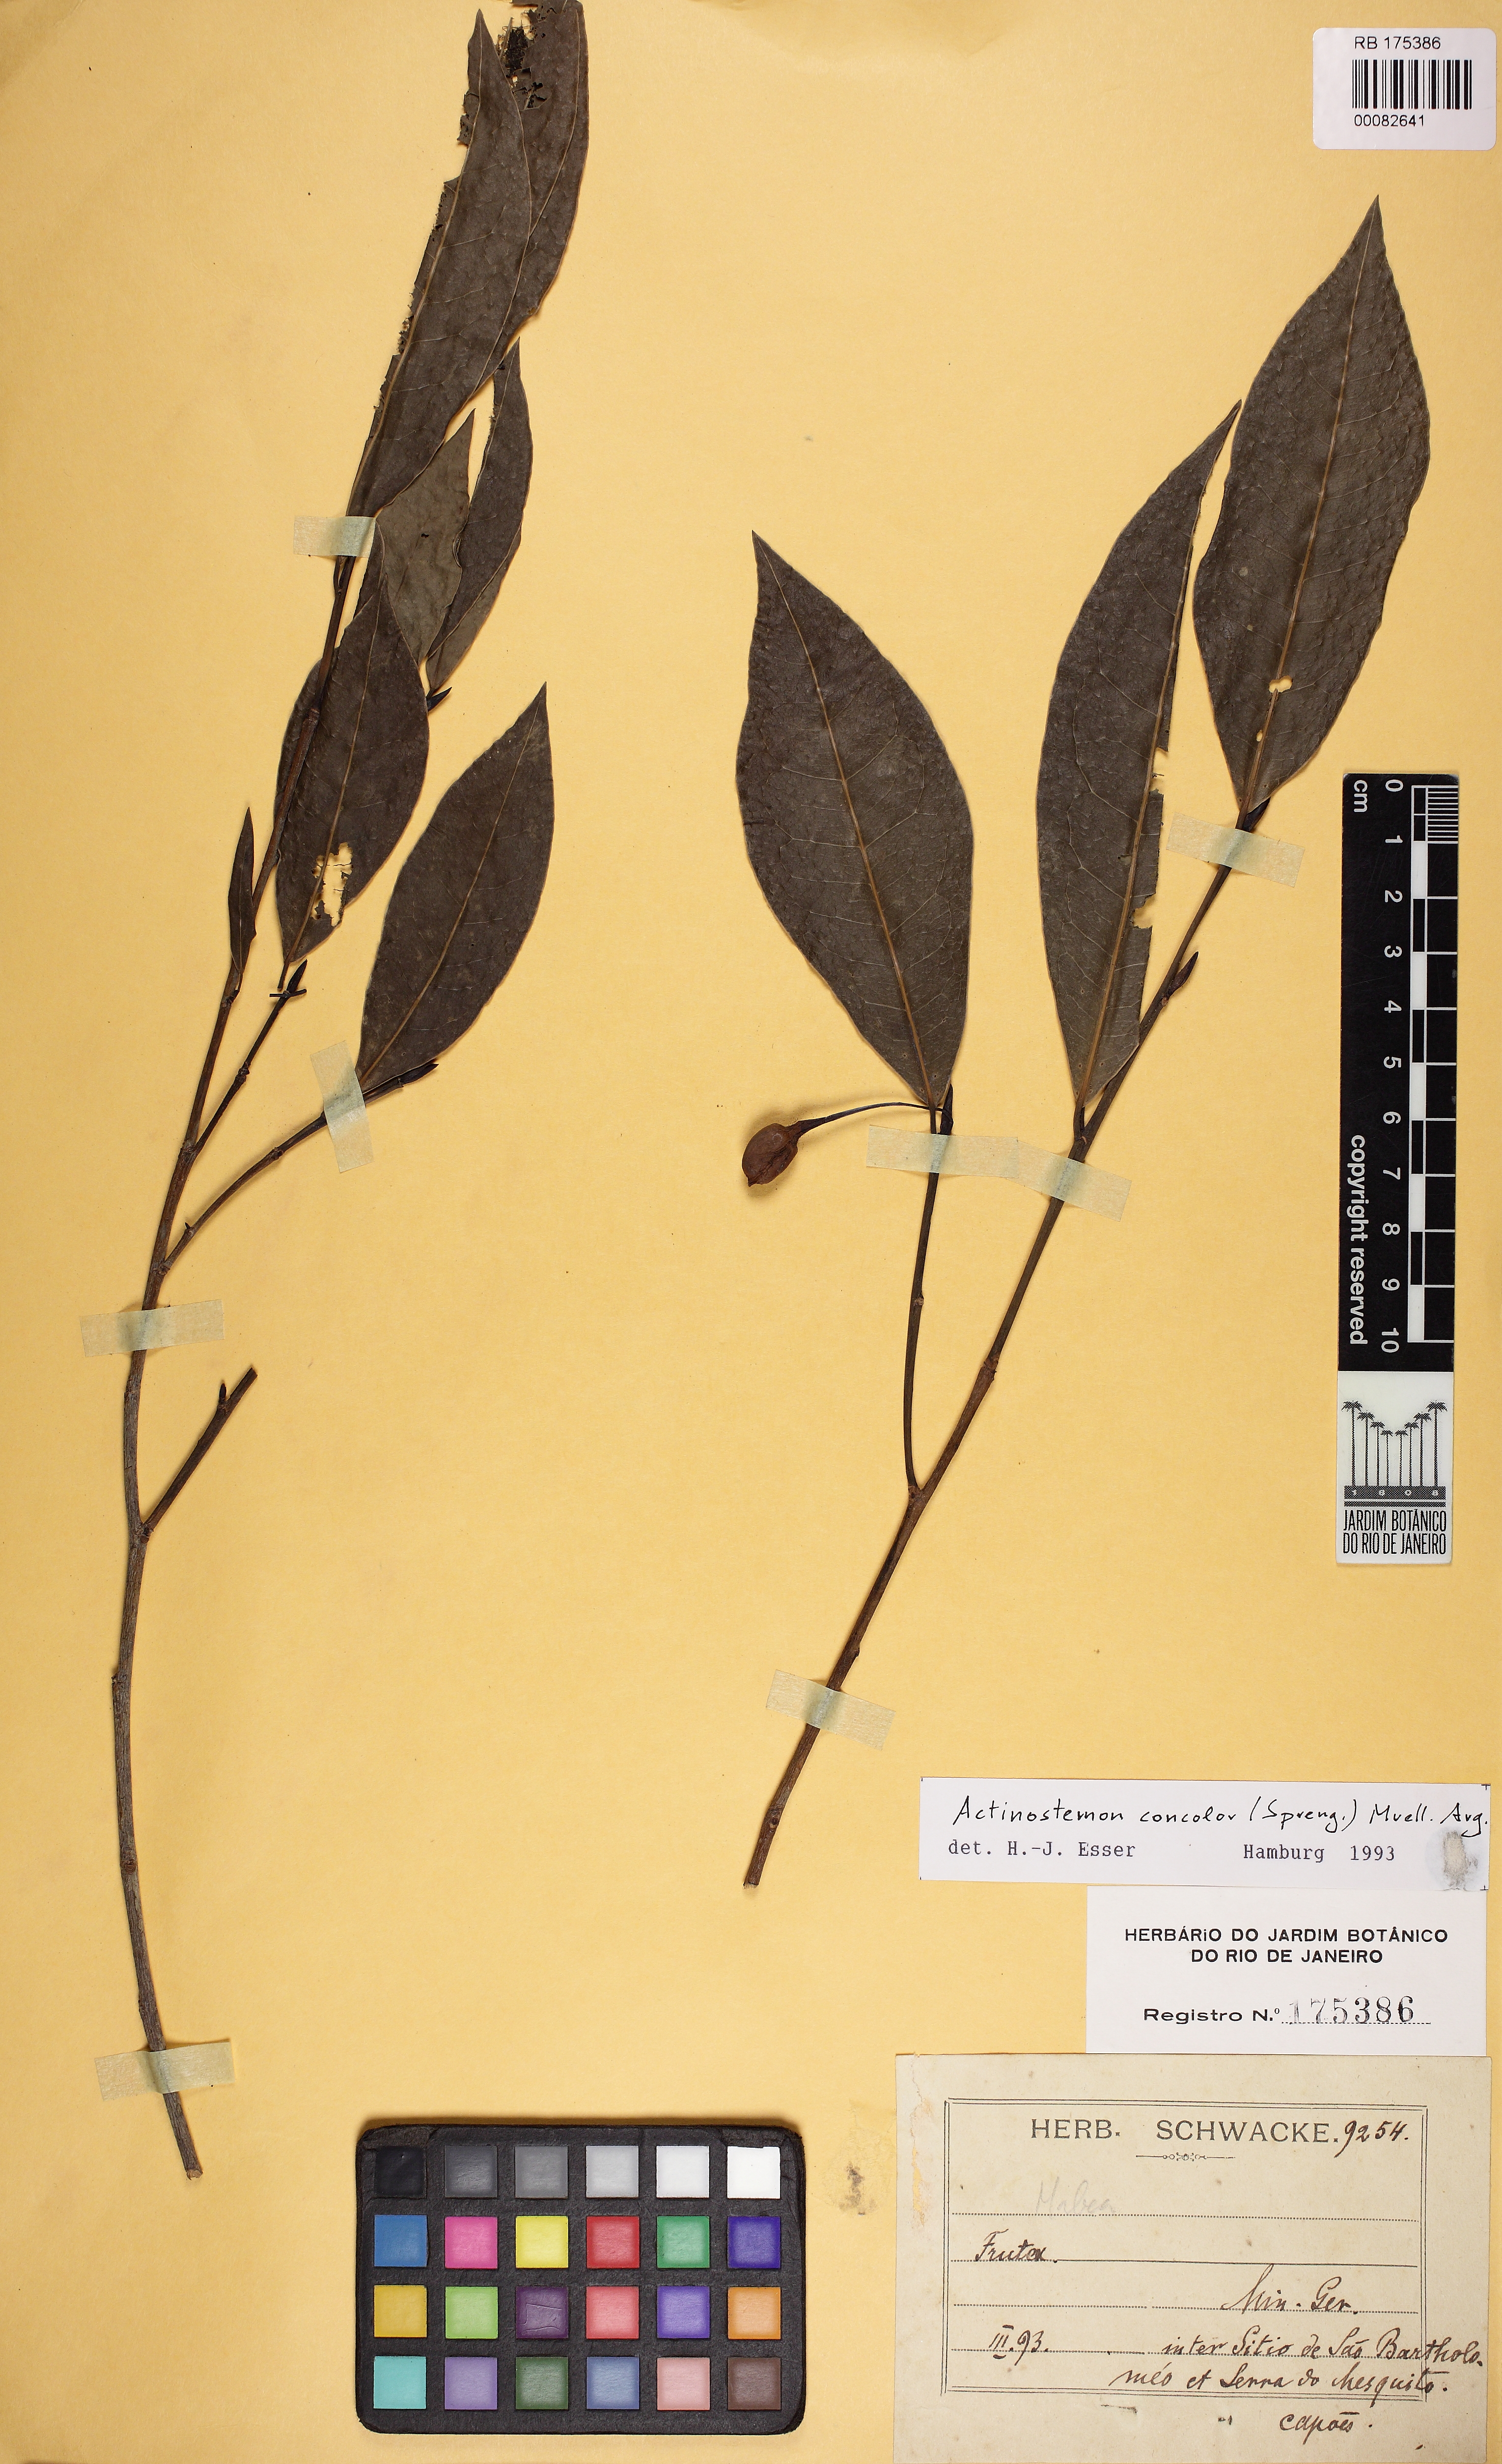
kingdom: Plantae
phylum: Tracheophyta
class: Magnoliopsida
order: Malpighiales
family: Euphorbiaceae
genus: Actinostemon
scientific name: Actinostemon concolor
